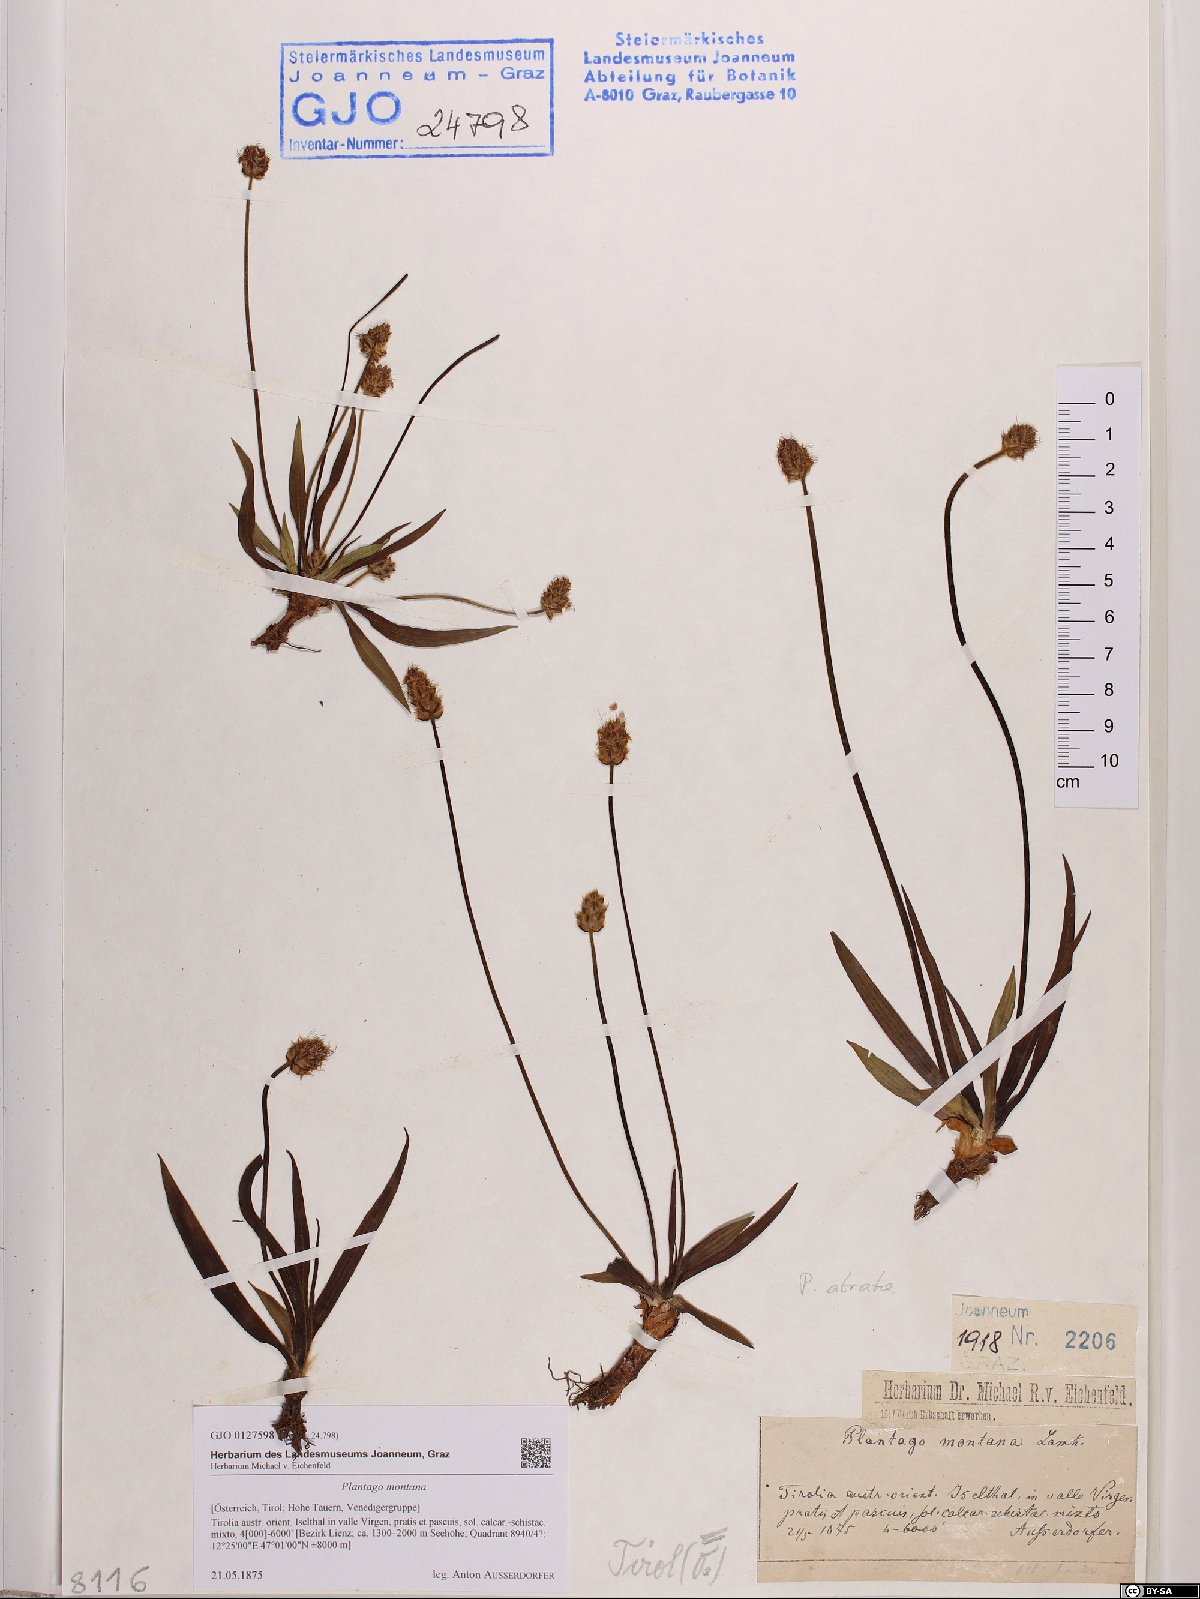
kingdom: Plantae
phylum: Tracheophyta
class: Magnoliopsida
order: Lamiales
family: Plantaginaceae
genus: Plantago
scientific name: Plantago atrata
